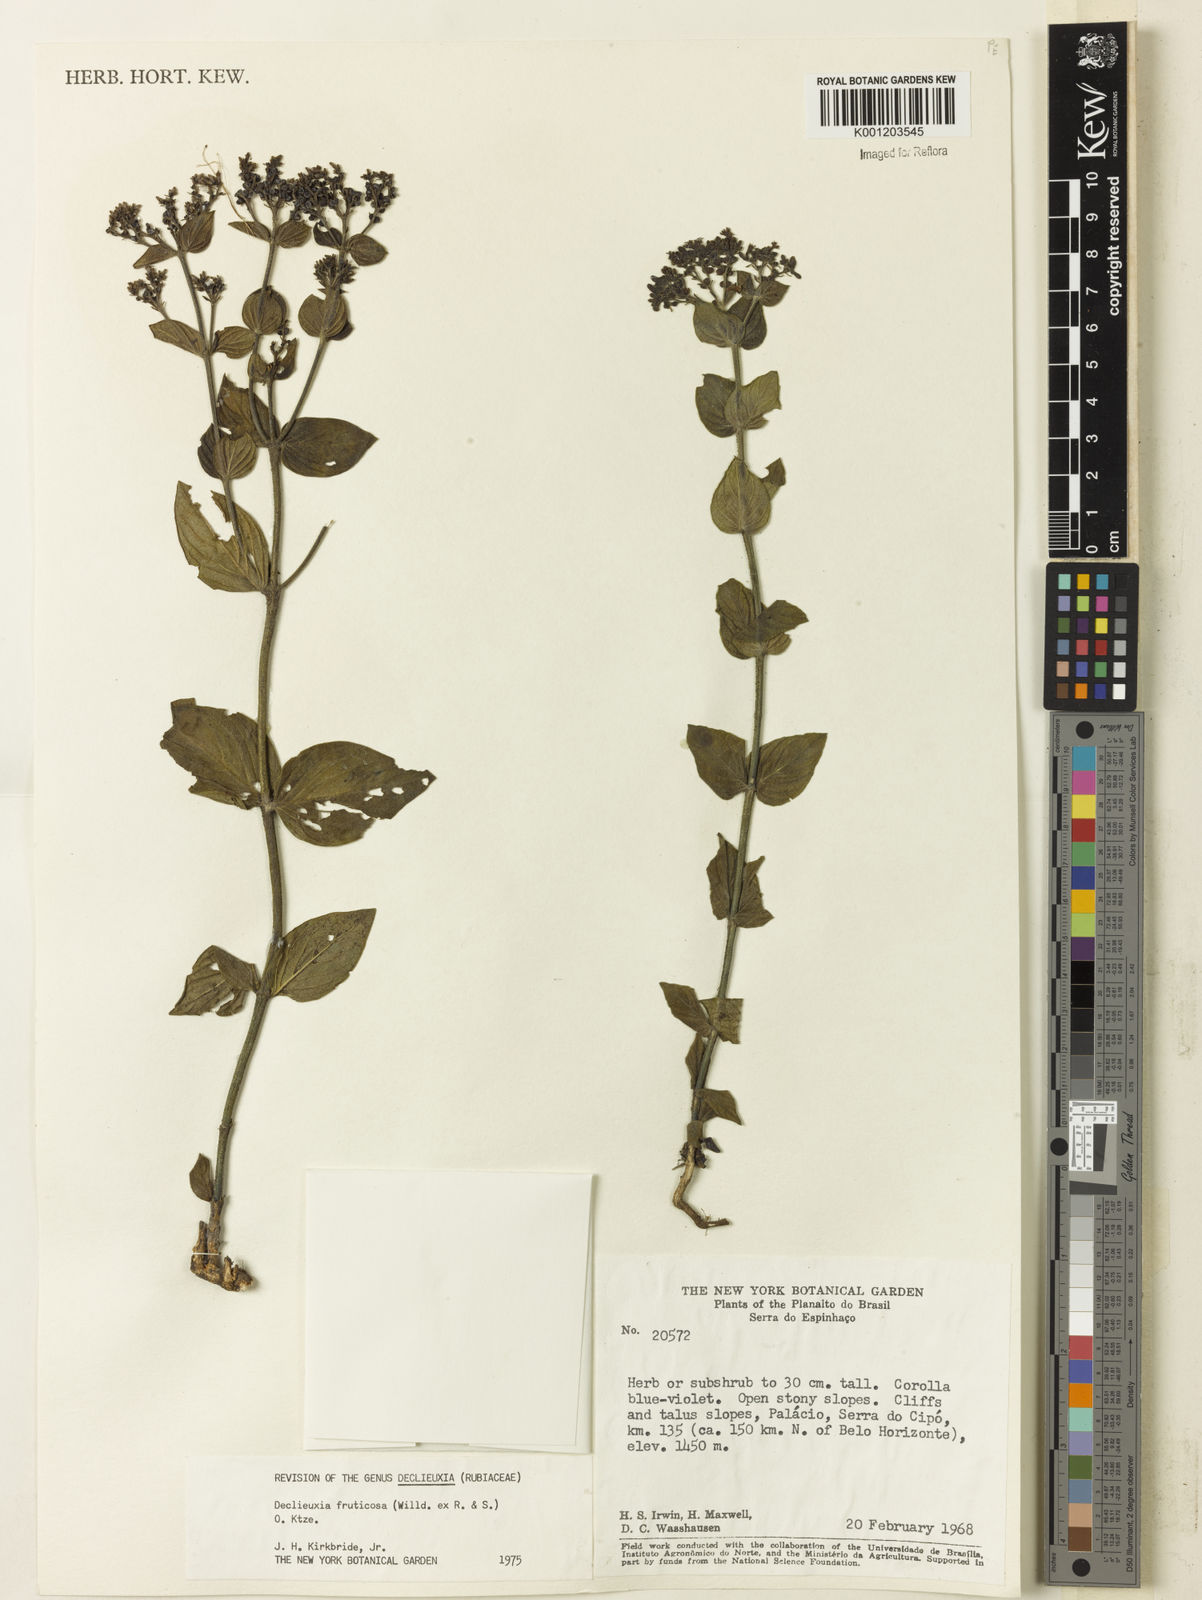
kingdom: Plantae
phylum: Tracheophyta
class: Magnoliopsida
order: Gentianales
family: Rubiaceae
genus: Declieuxia
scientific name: Declieuxia fruticosa
